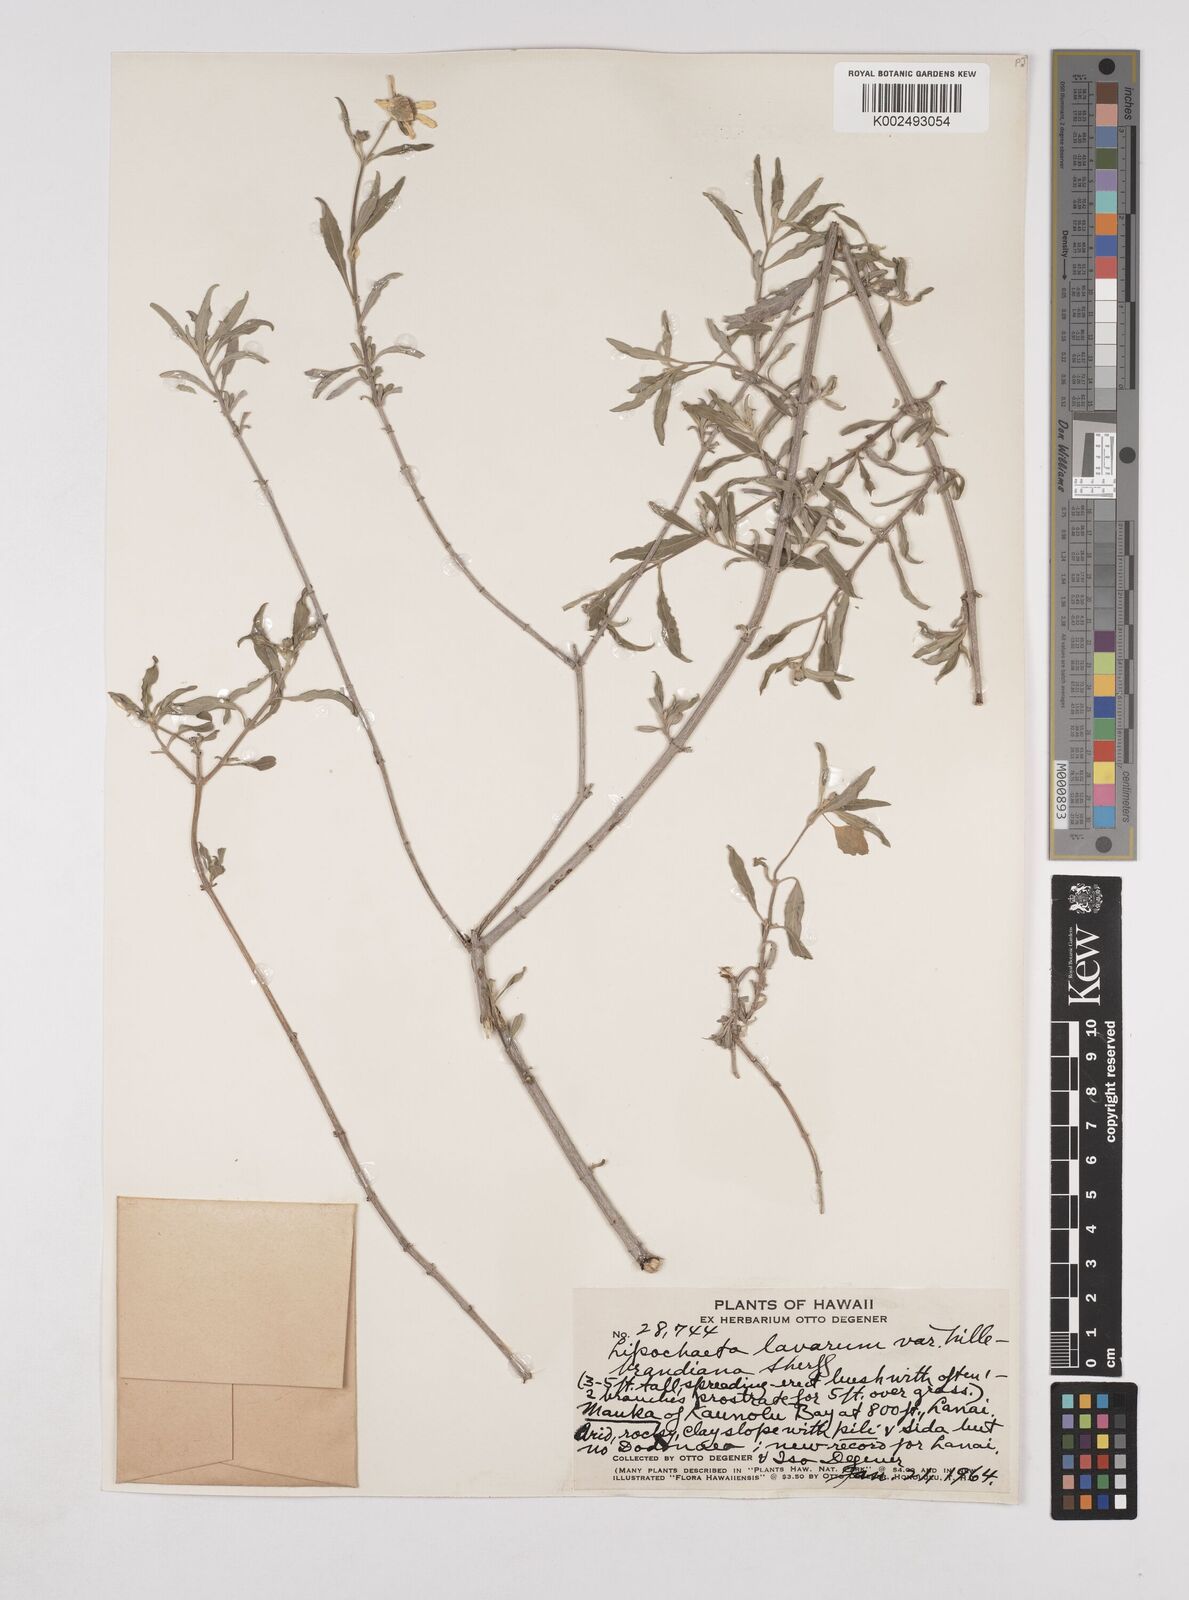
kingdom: Plantae
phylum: Tracheophyta
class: Magnoliopsida
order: Asterales
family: Asteraceae
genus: Lipochaeta
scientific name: Lipochaeta lavarum
